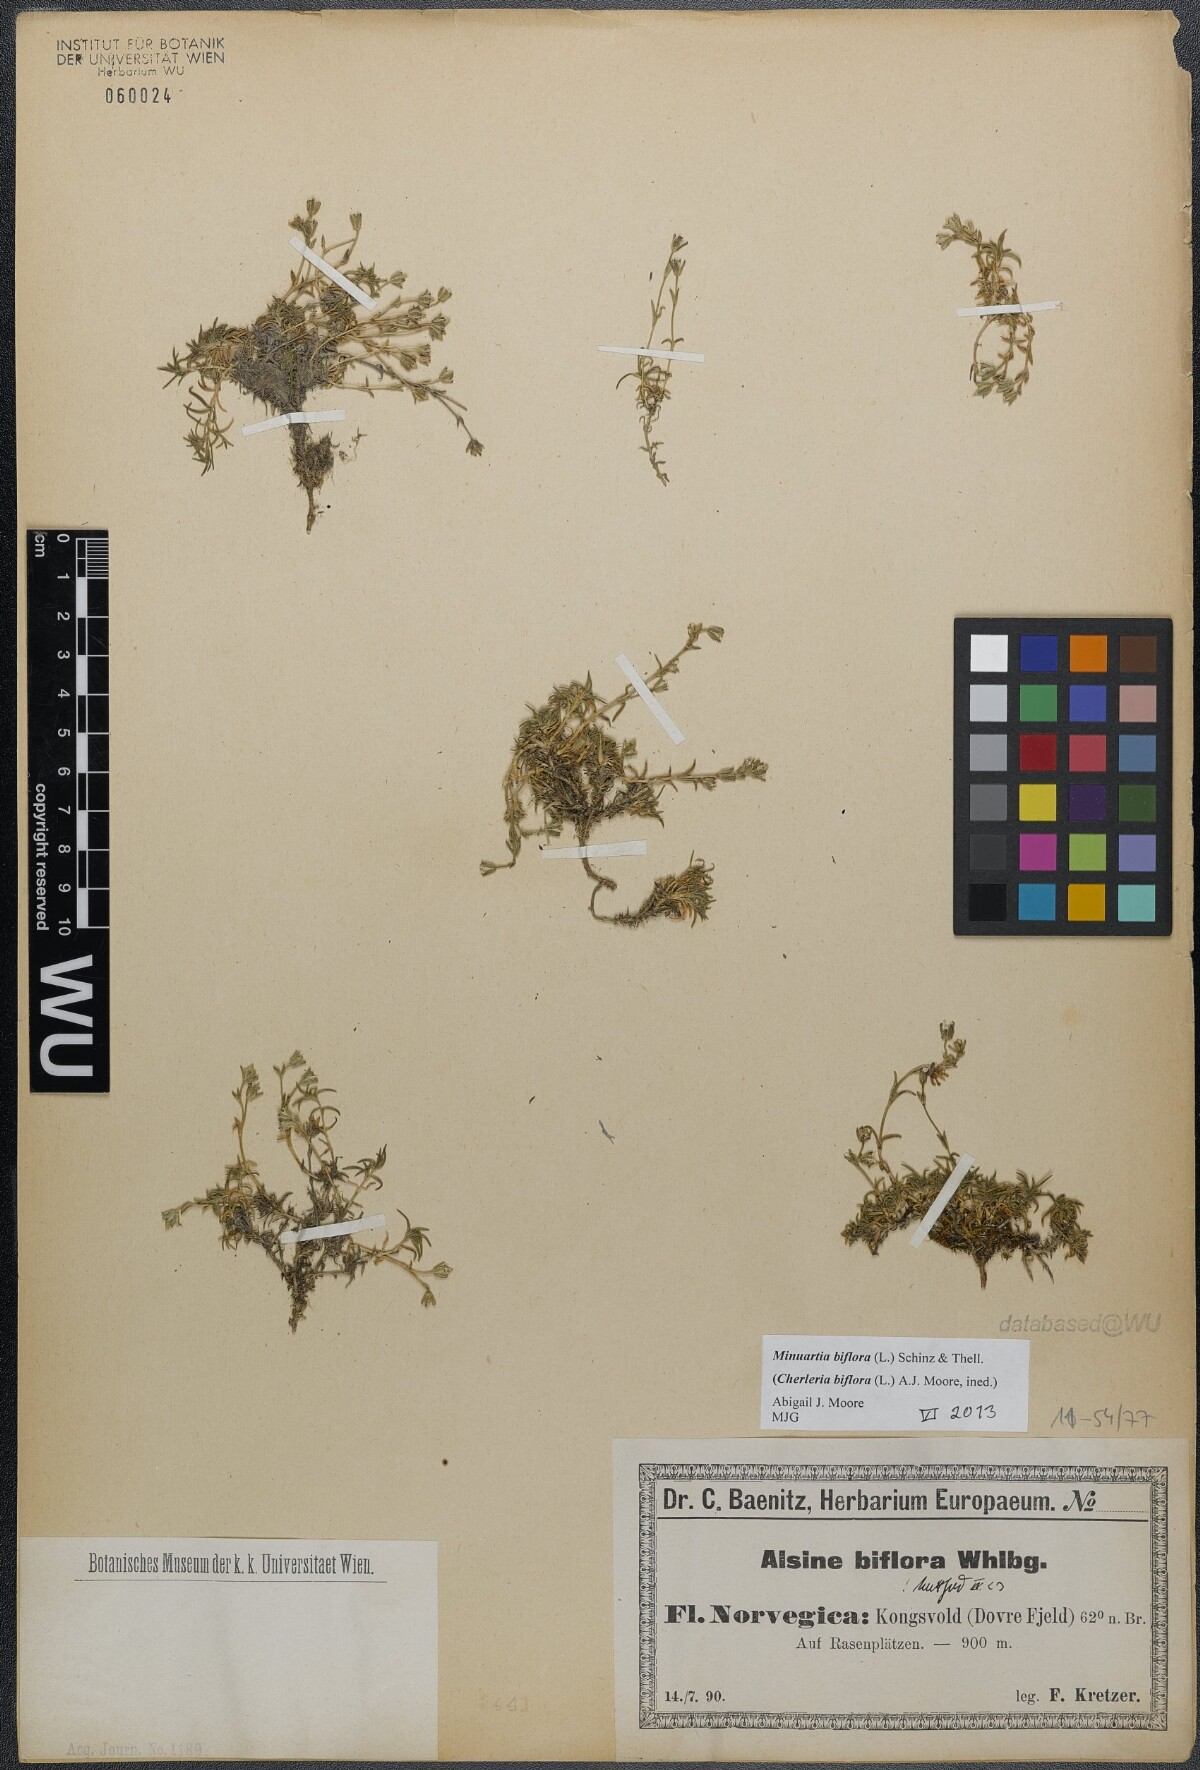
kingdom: Plantae
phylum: Tracheophyta
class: Magnoliopsida
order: Caryophyllales
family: Caryophyllaceae
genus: Cherleria
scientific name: Cherleria biflora
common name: Mountain sandwort
